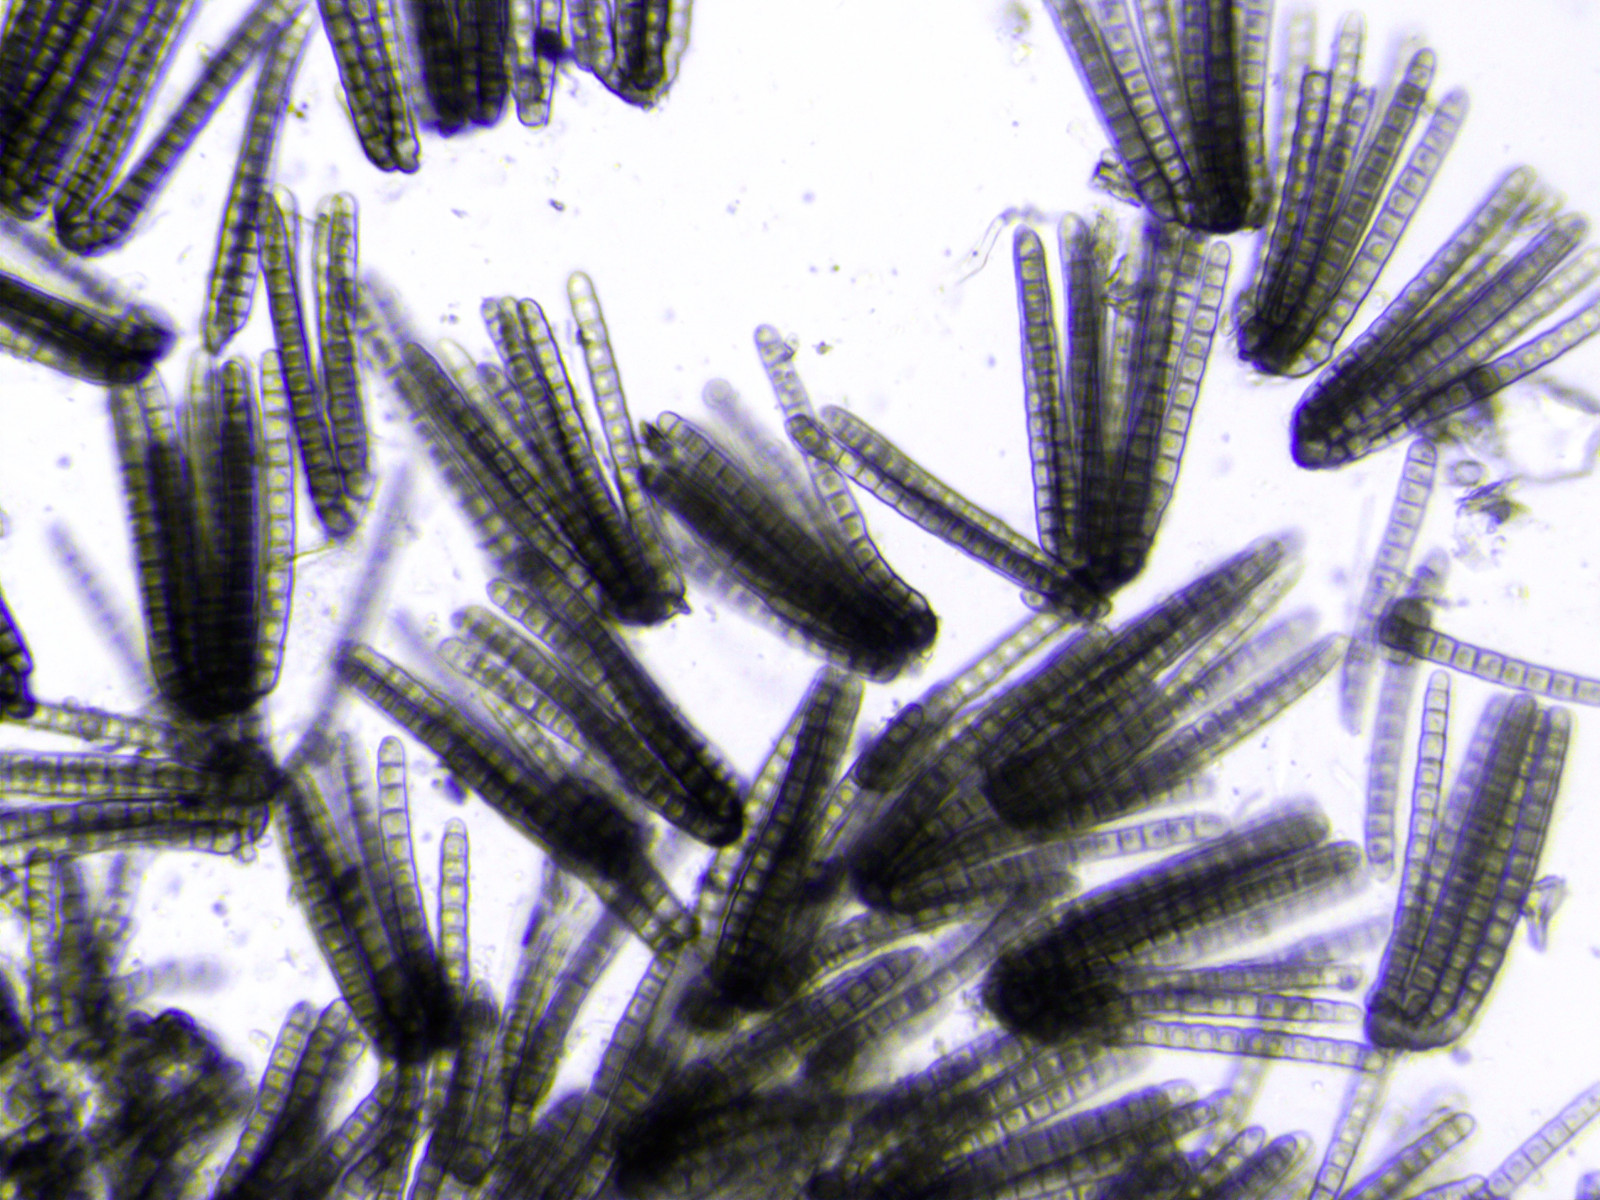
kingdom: Fungi
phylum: Ascomycota
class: Dothideomycetes
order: Pleosporales
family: Cryptocoryneaceae
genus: Cryptocoryneum
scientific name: Cryptocoryneum condensatum
